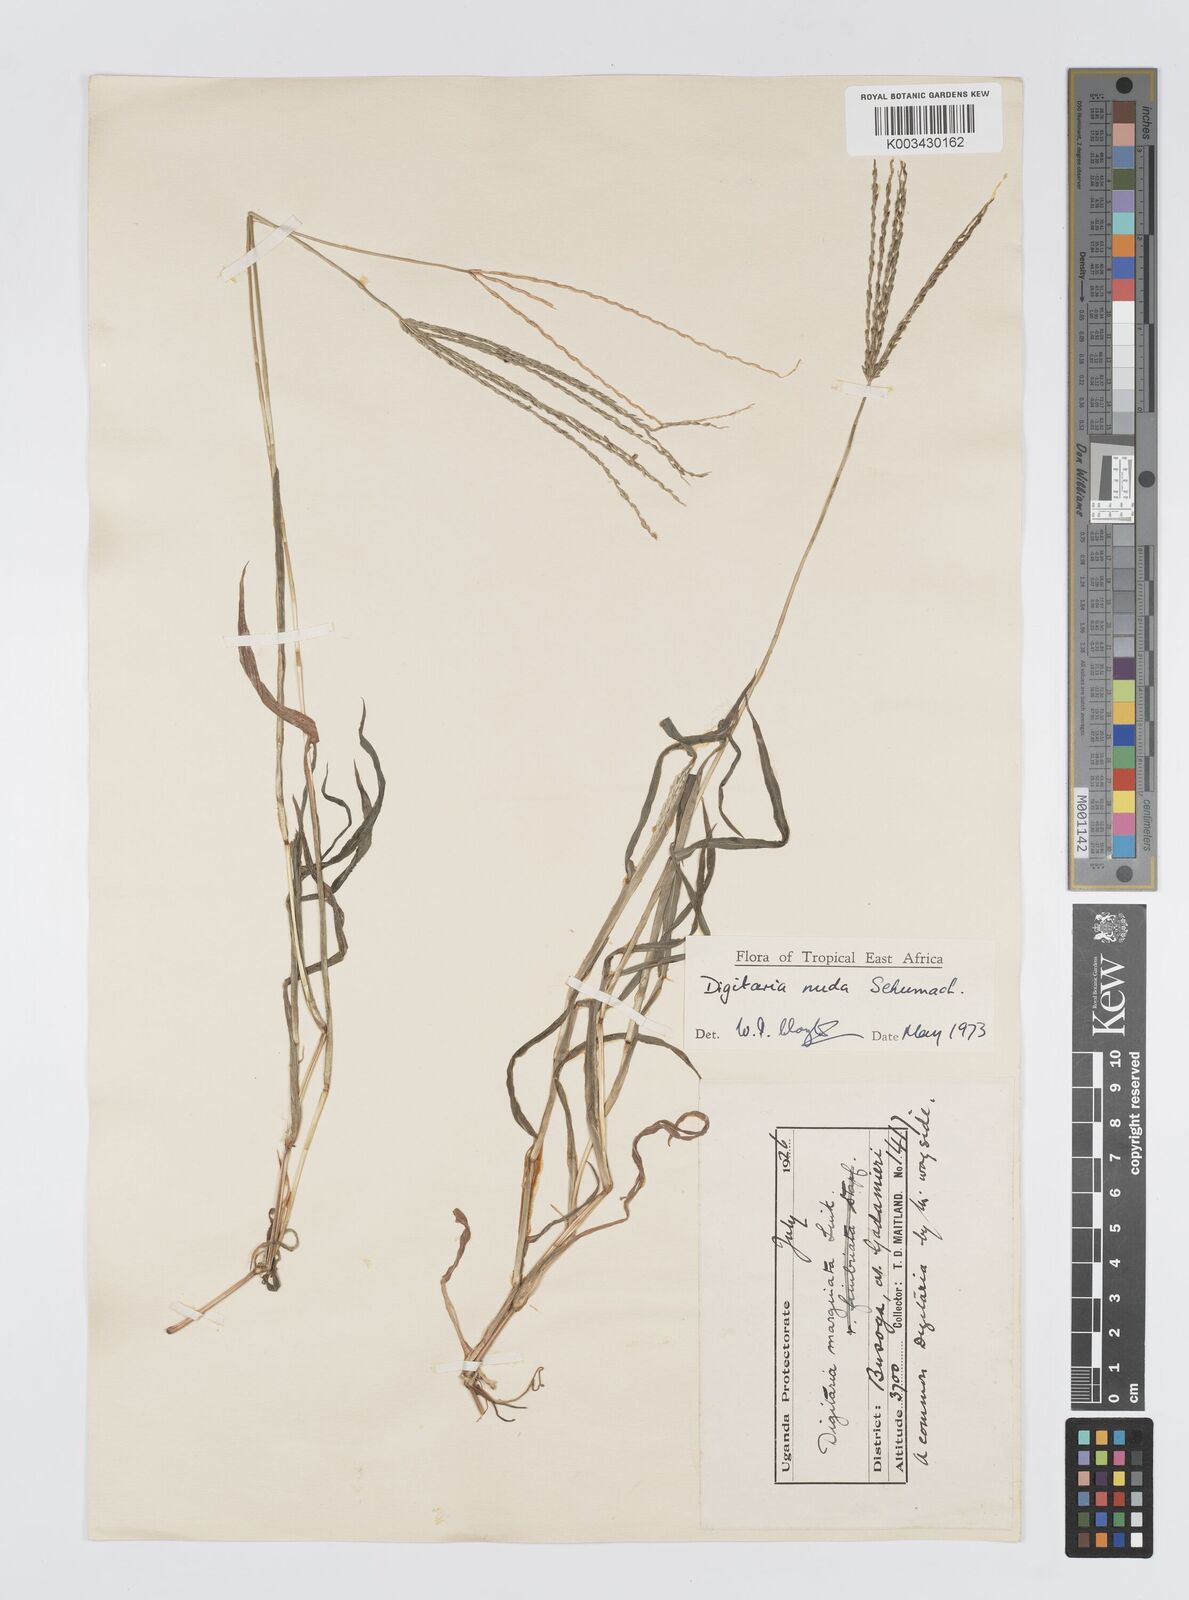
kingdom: Plantae
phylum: Tracheophyta
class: Liliopsida
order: Poales
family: Poaceae
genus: Digitaria
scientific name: Digitaria nuda
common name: Naked crabgrass
